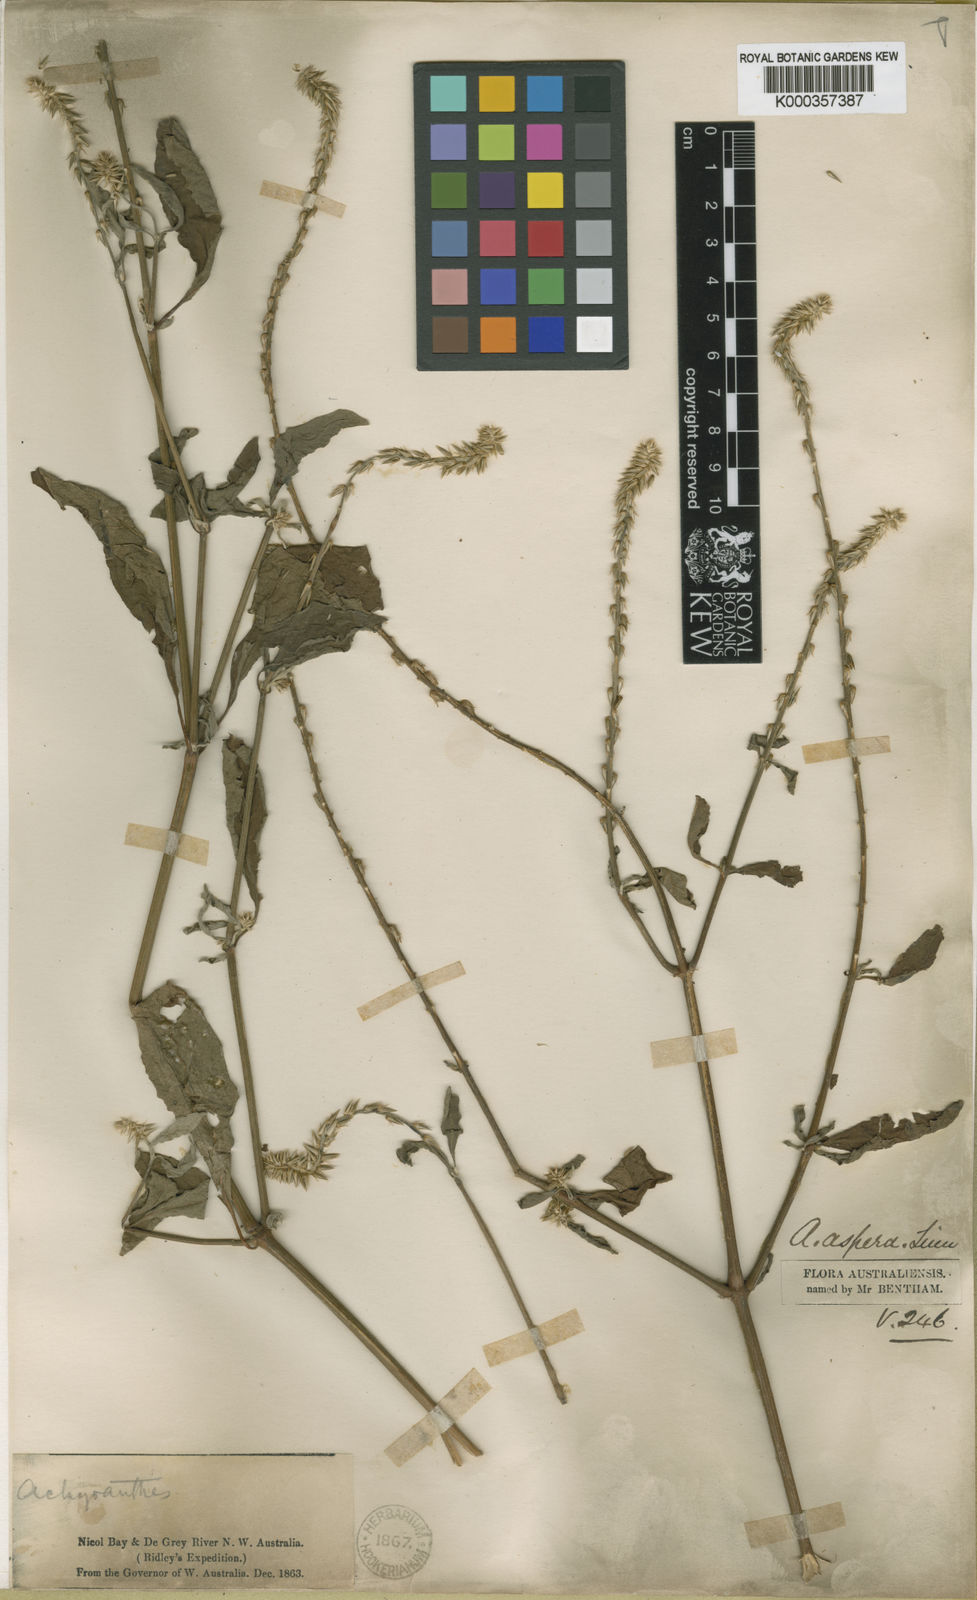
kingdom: Plantae
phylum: Tracheophyta
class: Magnoliopsida
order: Caryophyllales
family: Amaranthaceae
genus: Achyranthes
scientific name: Achyranthes aspera
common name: Devil's horsewhip
